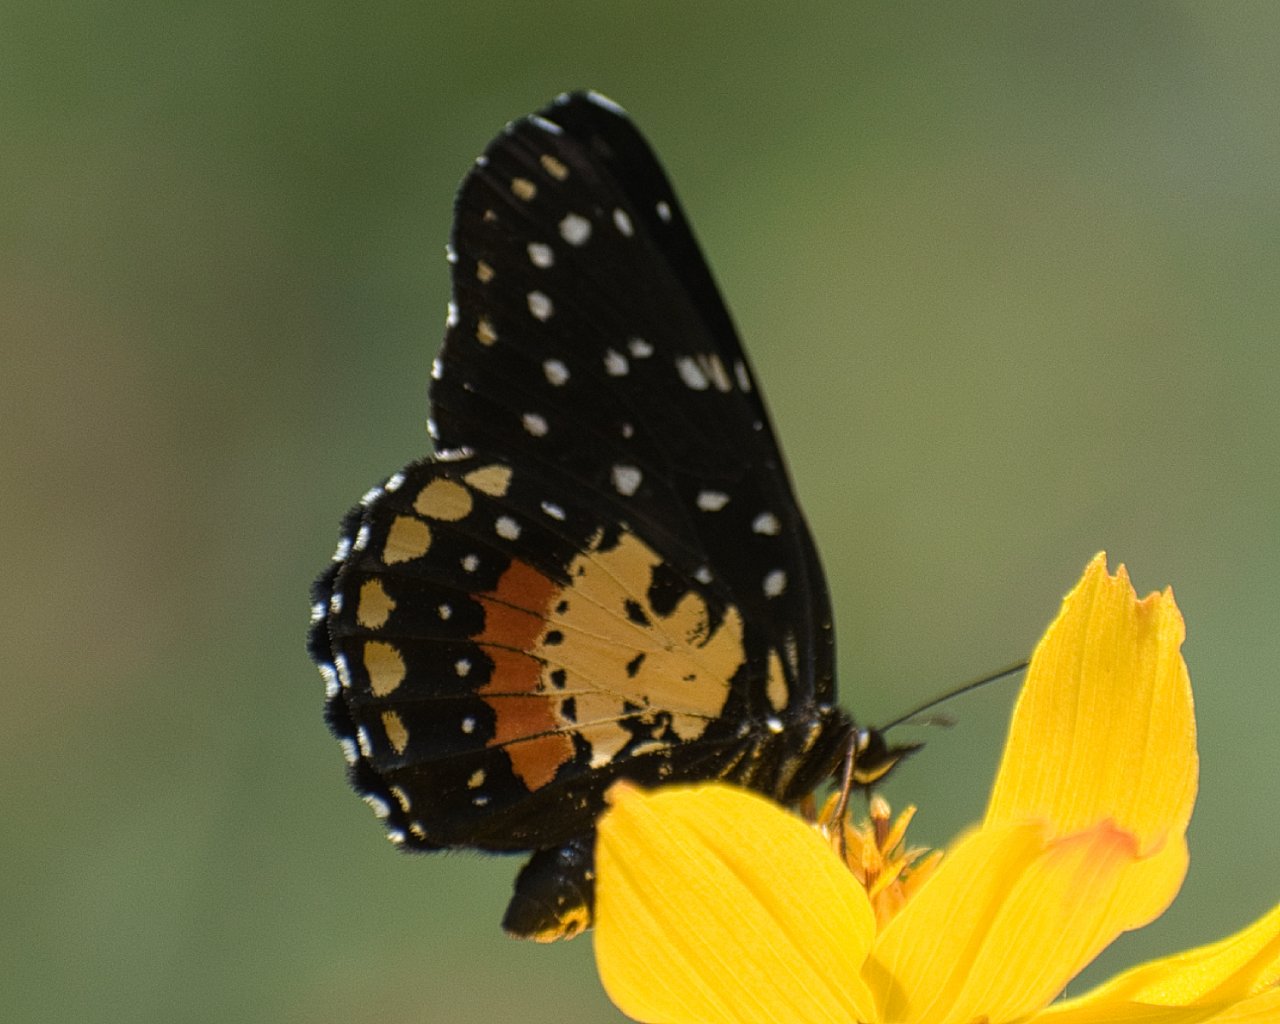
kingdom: Animalia
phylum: Arthropoda
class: Insecta
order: Lepidoptera
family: Nymphalidae
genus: Chlosyne
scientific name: Chlosyne janais
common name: Crimson Patch
